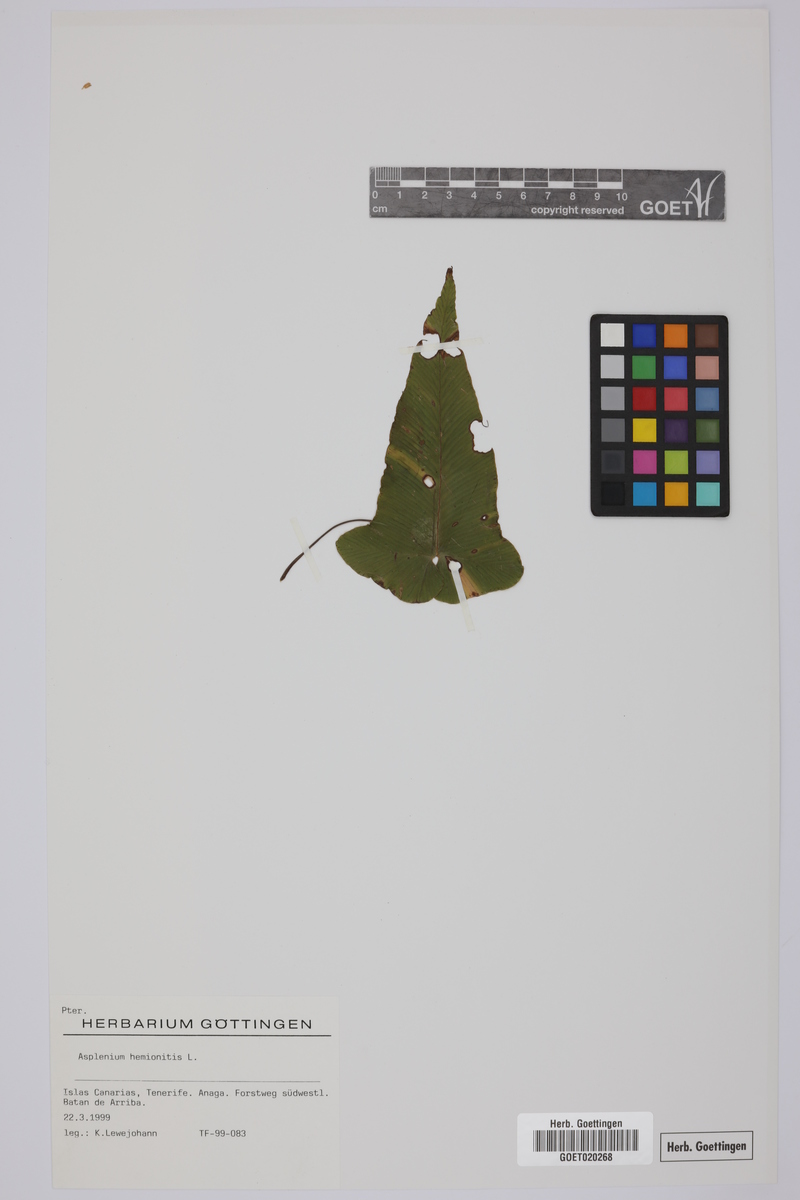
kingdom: Plantae
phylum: Tracheophyta
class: Polypodiopsida
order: Polypodiales
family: Aspleniaceae
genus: Asplenium
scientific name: Asplenium hemionitis
